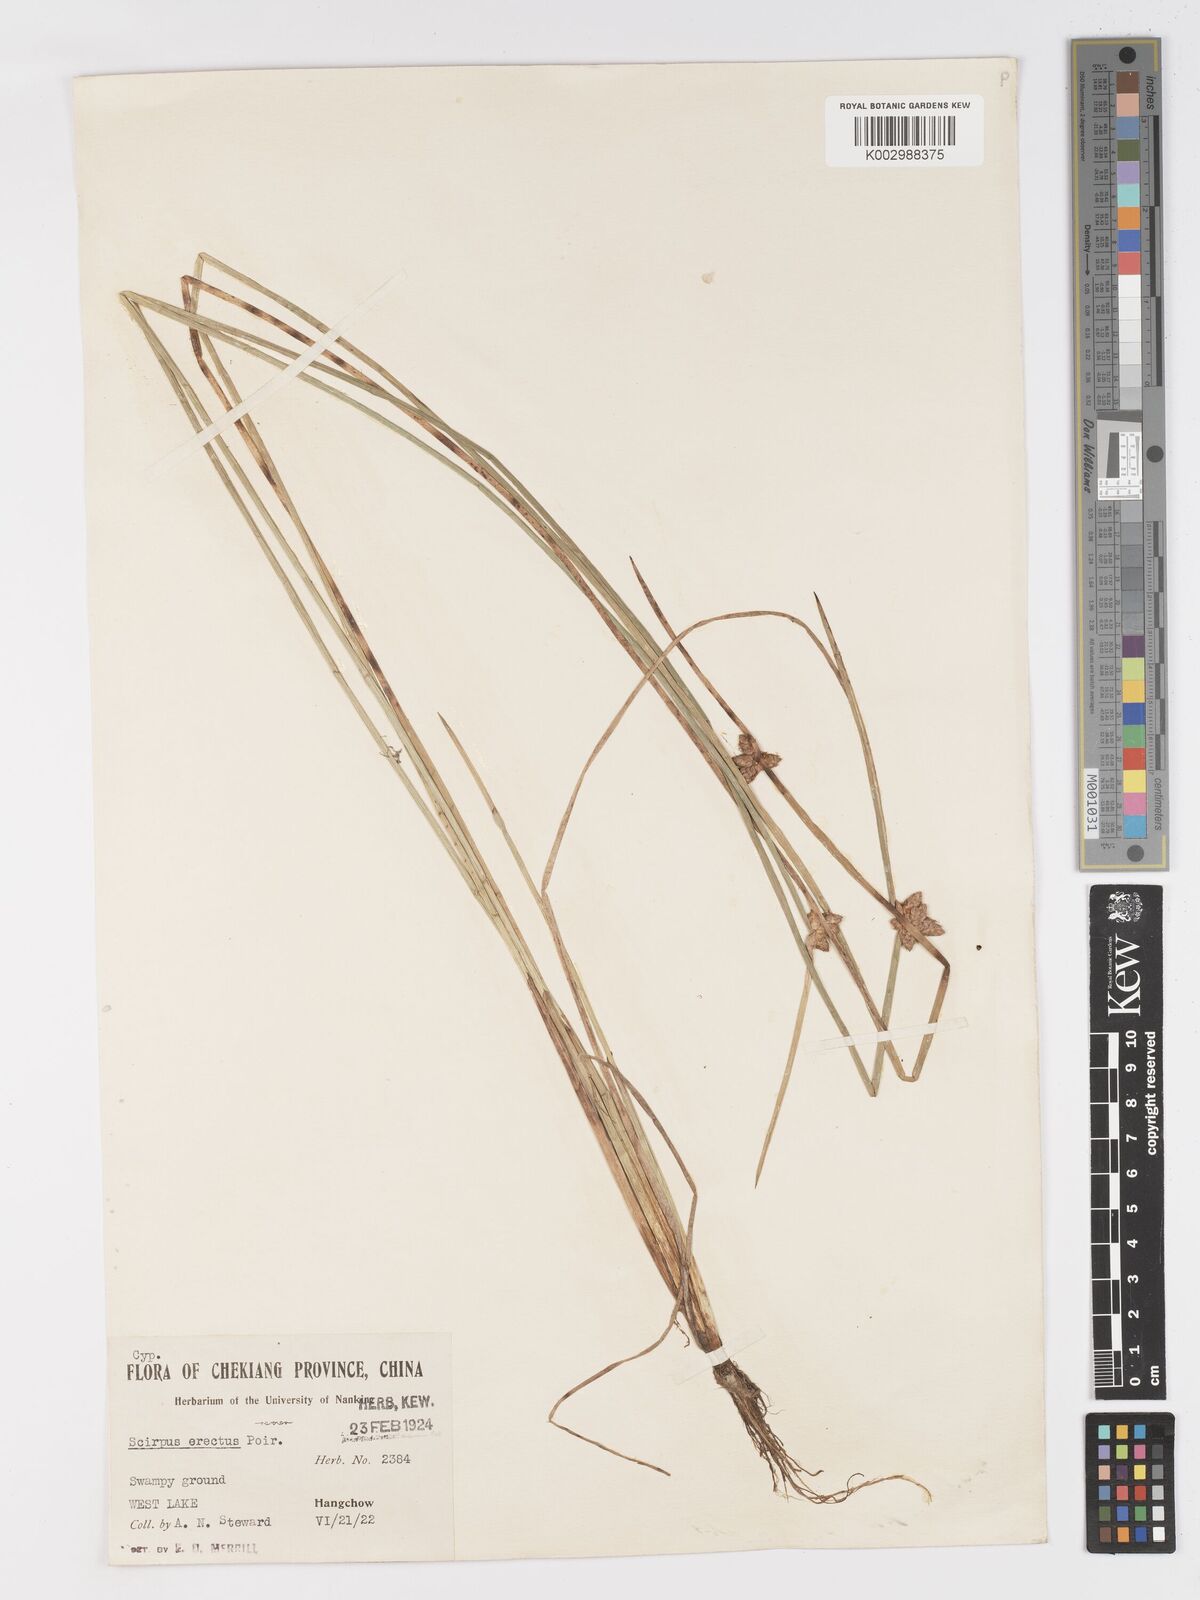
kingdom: Plantae
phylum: Tracheophyta
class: Liliopsida
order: Poales
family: Cyperaceae
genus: Schoenoplectiella
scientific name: Schoenoplectiella juncoides
